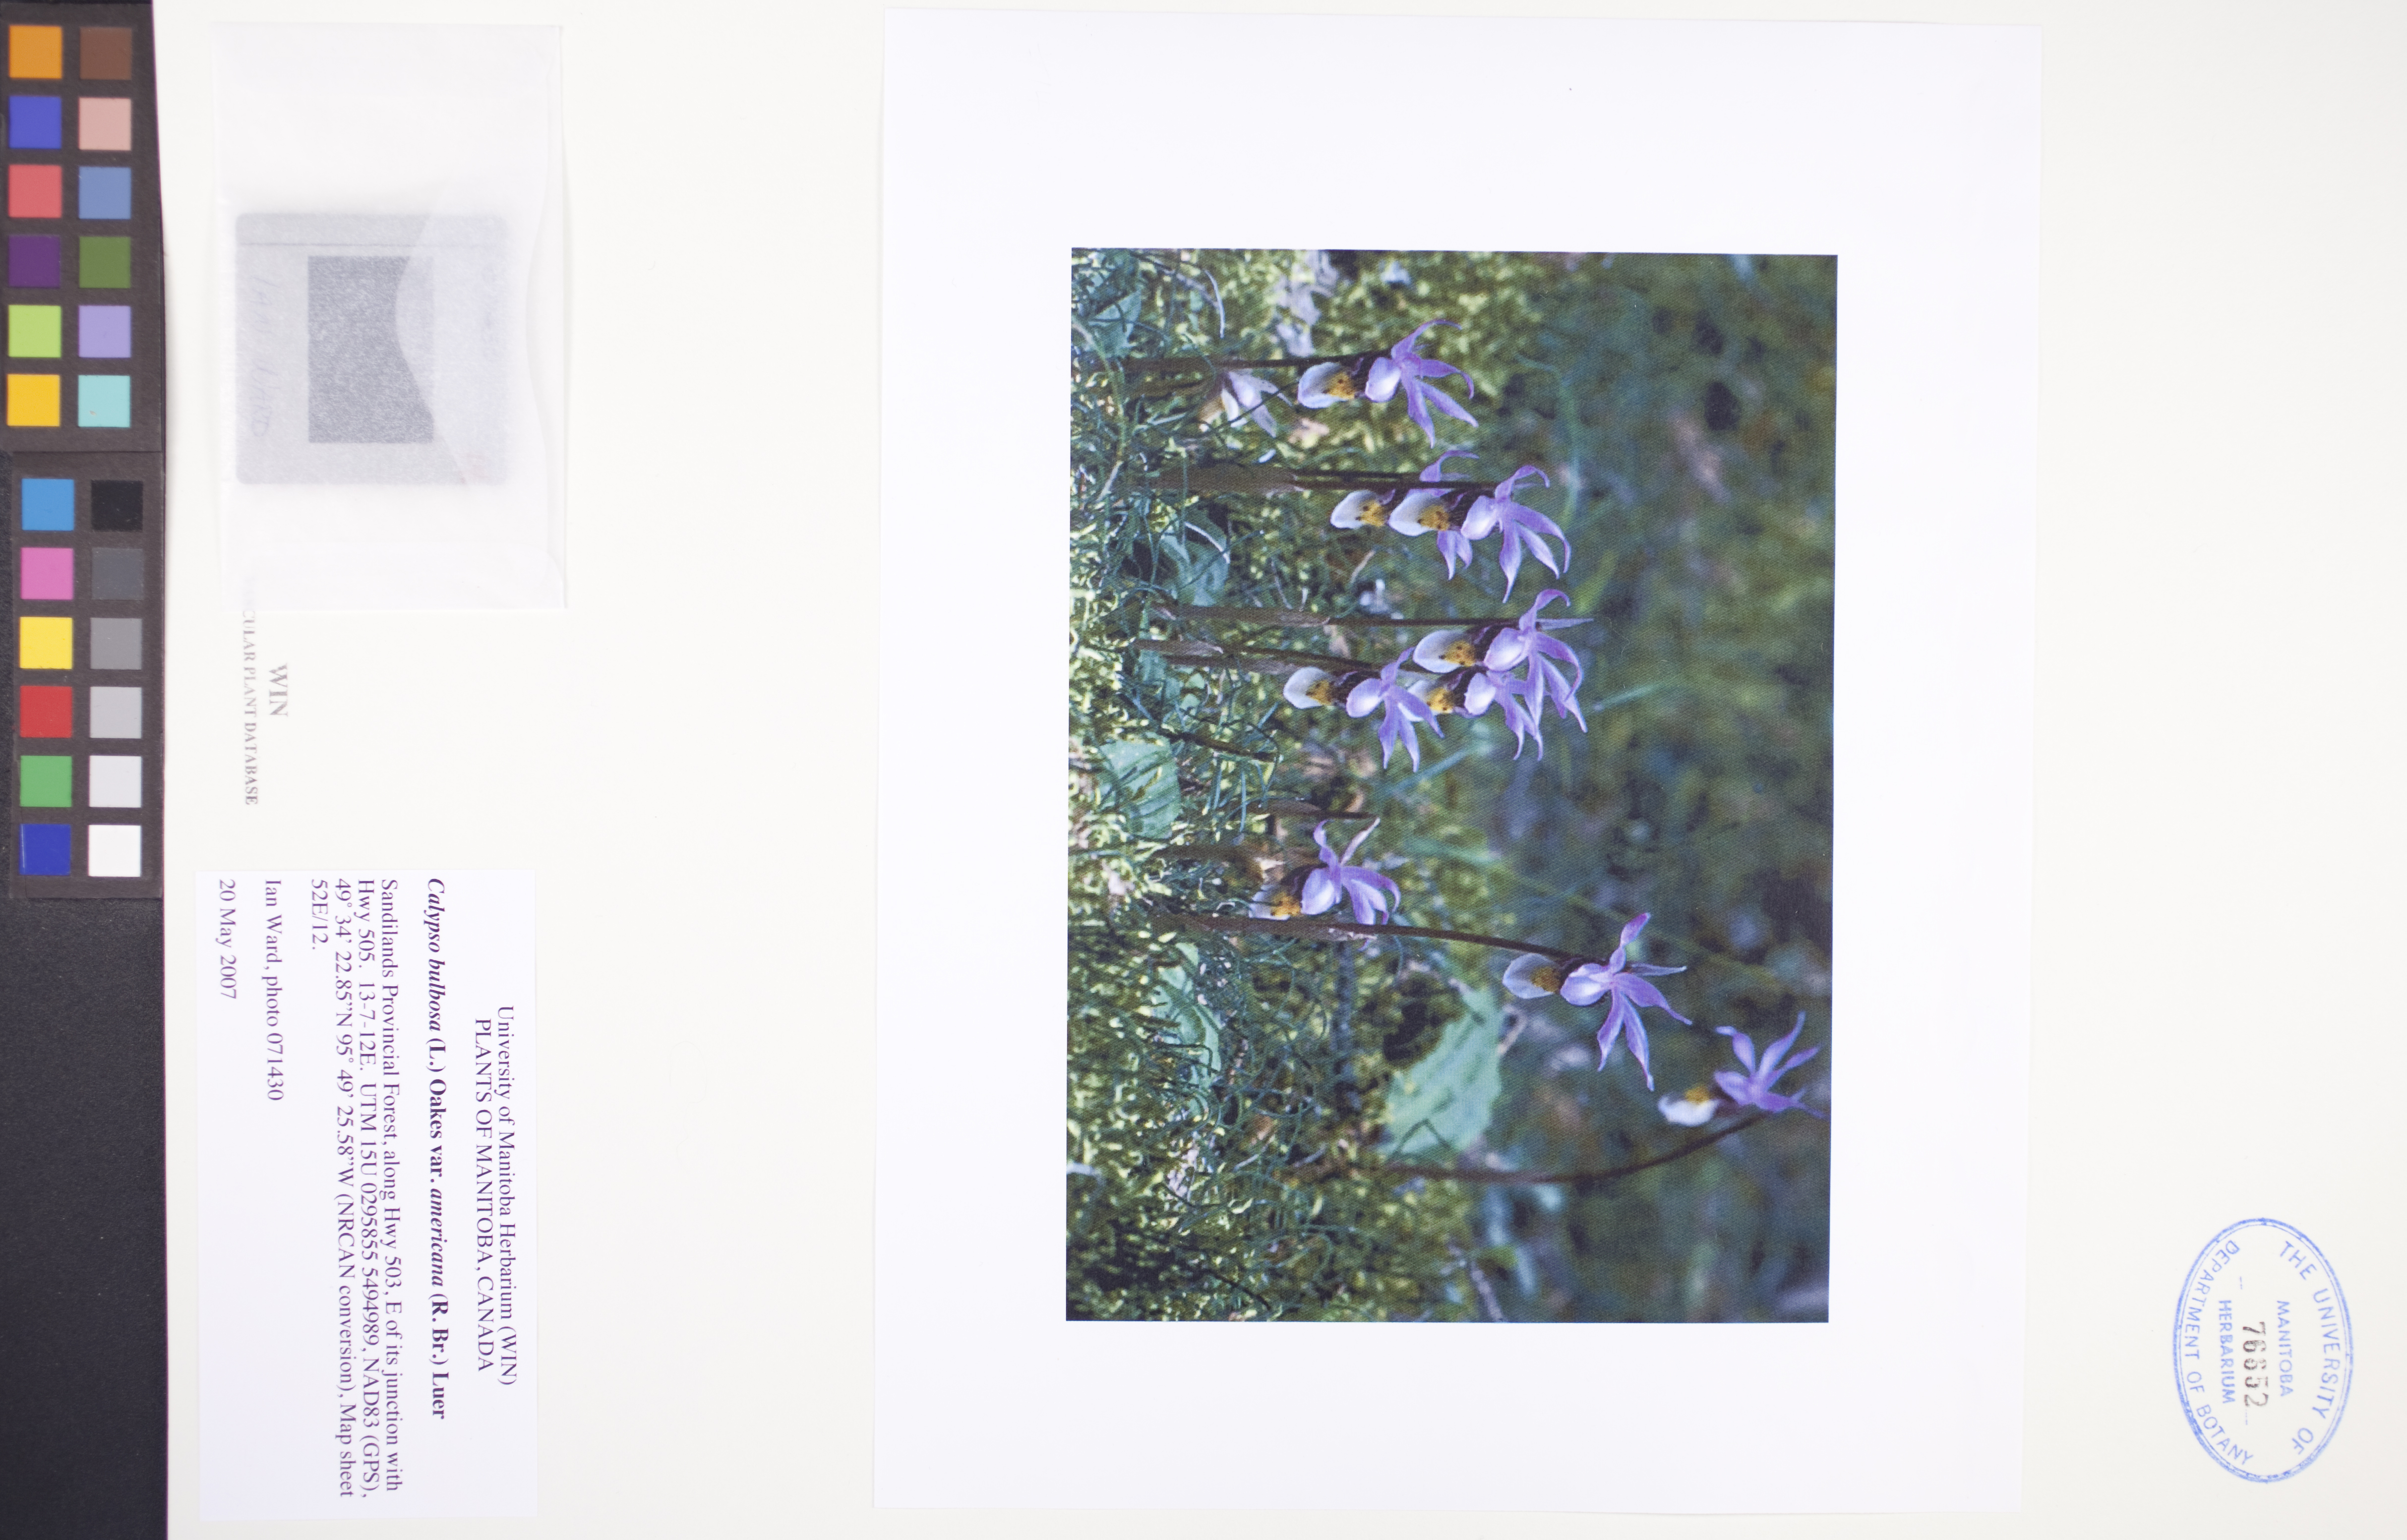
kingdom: Plantae
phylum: Tracheophyta
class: Liliopsida
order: Asparagales
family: Orchidaceae
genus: Calypso
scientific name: Calypso bulbosa
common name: Calypso
